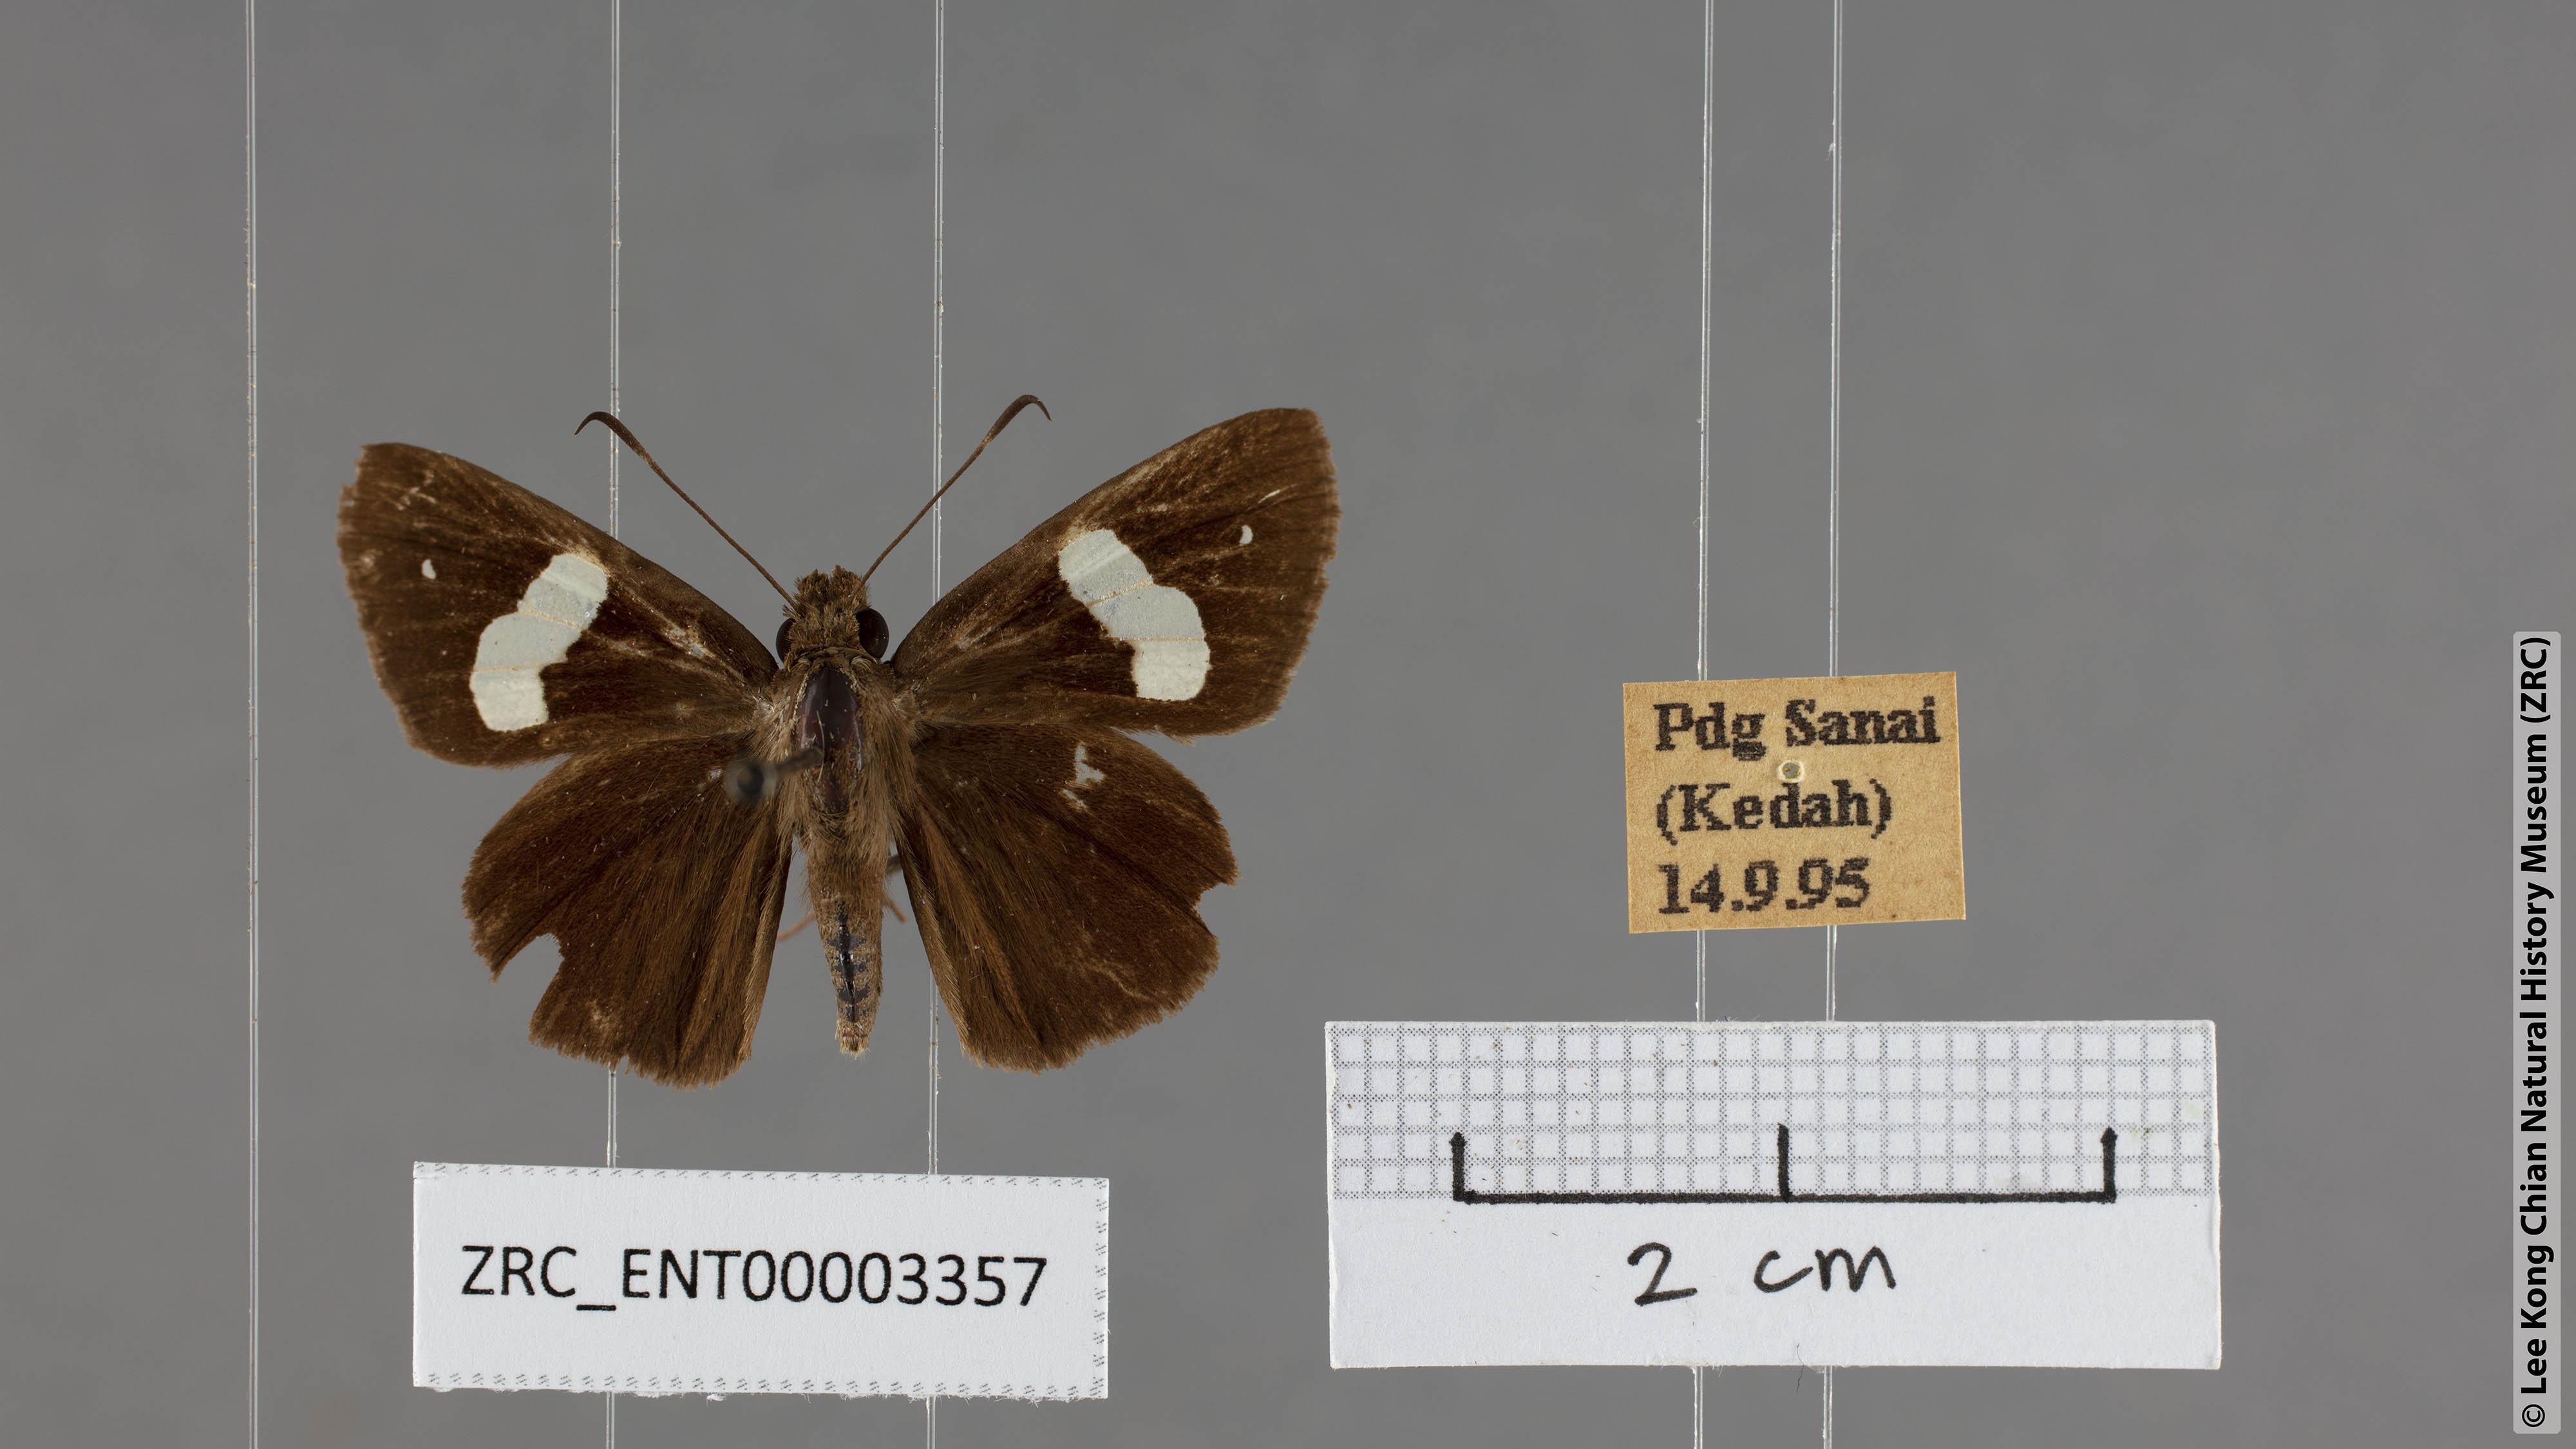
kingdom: Animalia
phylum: Arthropoda
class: Insecta
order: Lepidoptera
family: Hesperiidae
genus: Notocrypta
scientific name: Notocrypta paralysos
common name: Common banded demon
